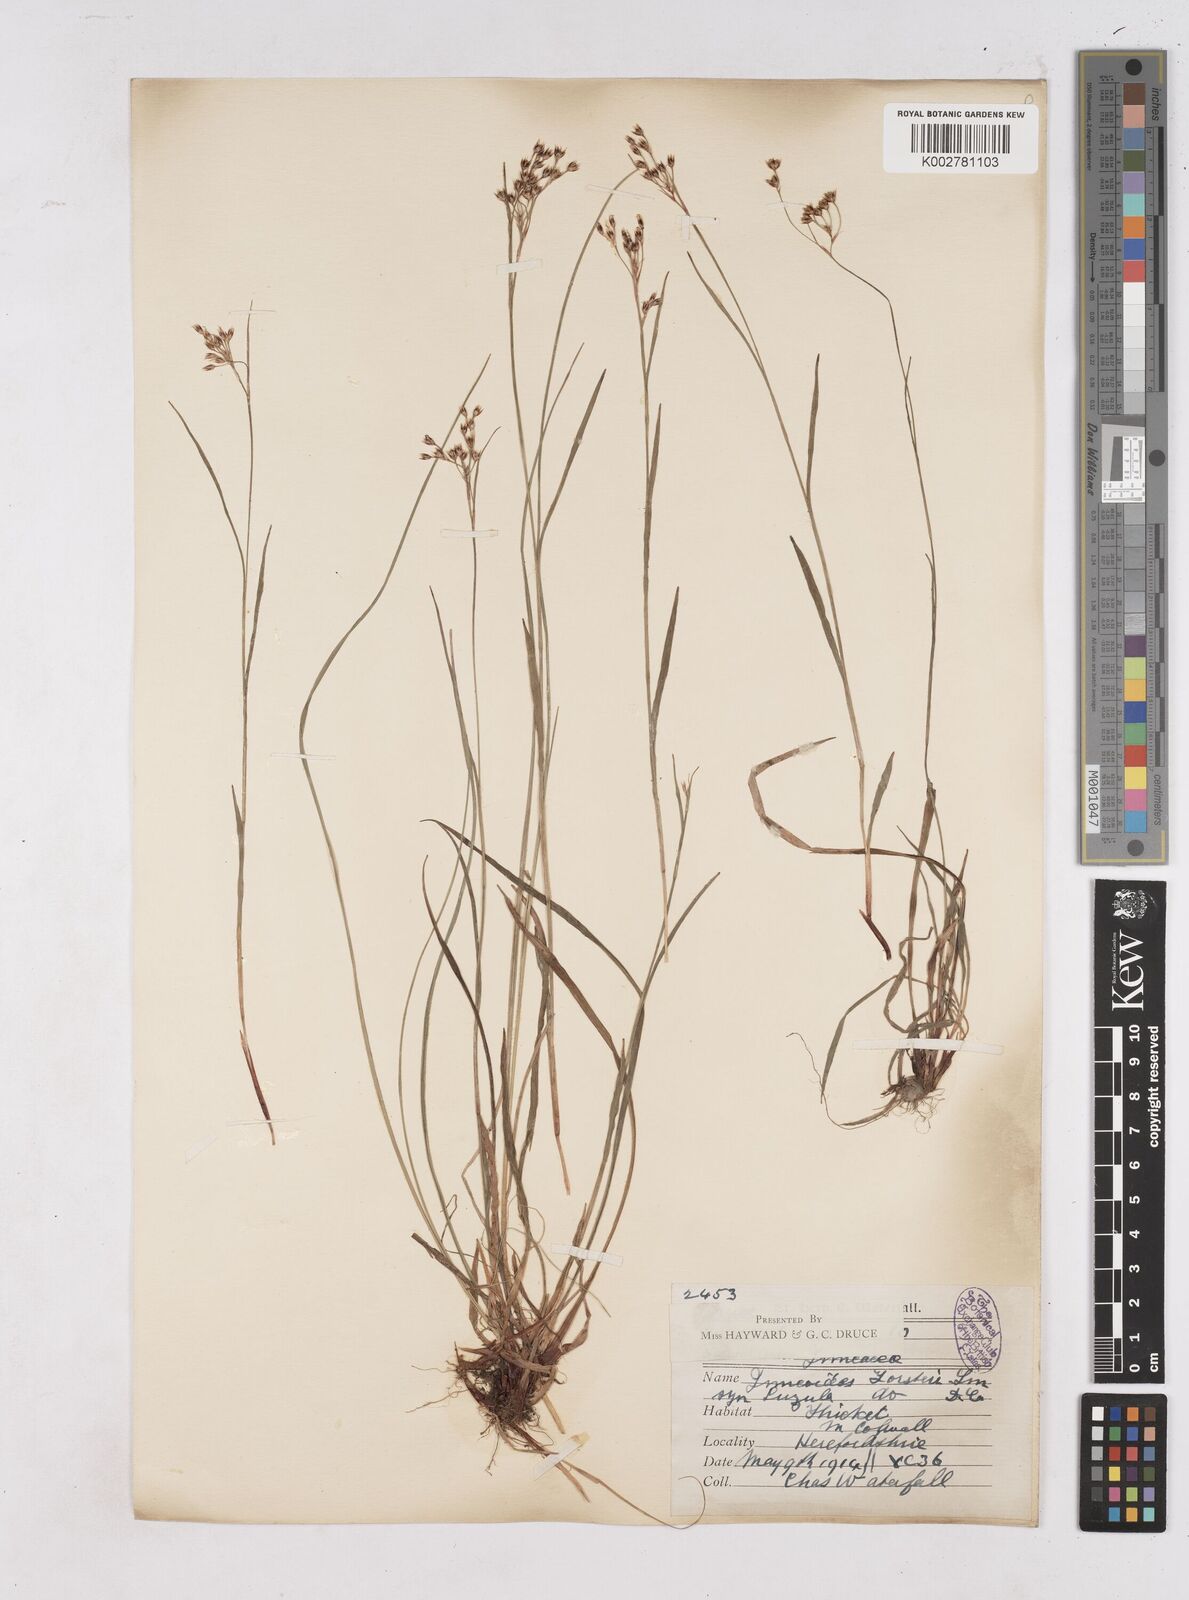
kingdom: Plantae
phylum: Tracheophyta
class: Liliopsida
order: Poales
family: Juncaceae
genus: Luzula
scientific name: Luzula forsteri
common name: Southern wood-rush
